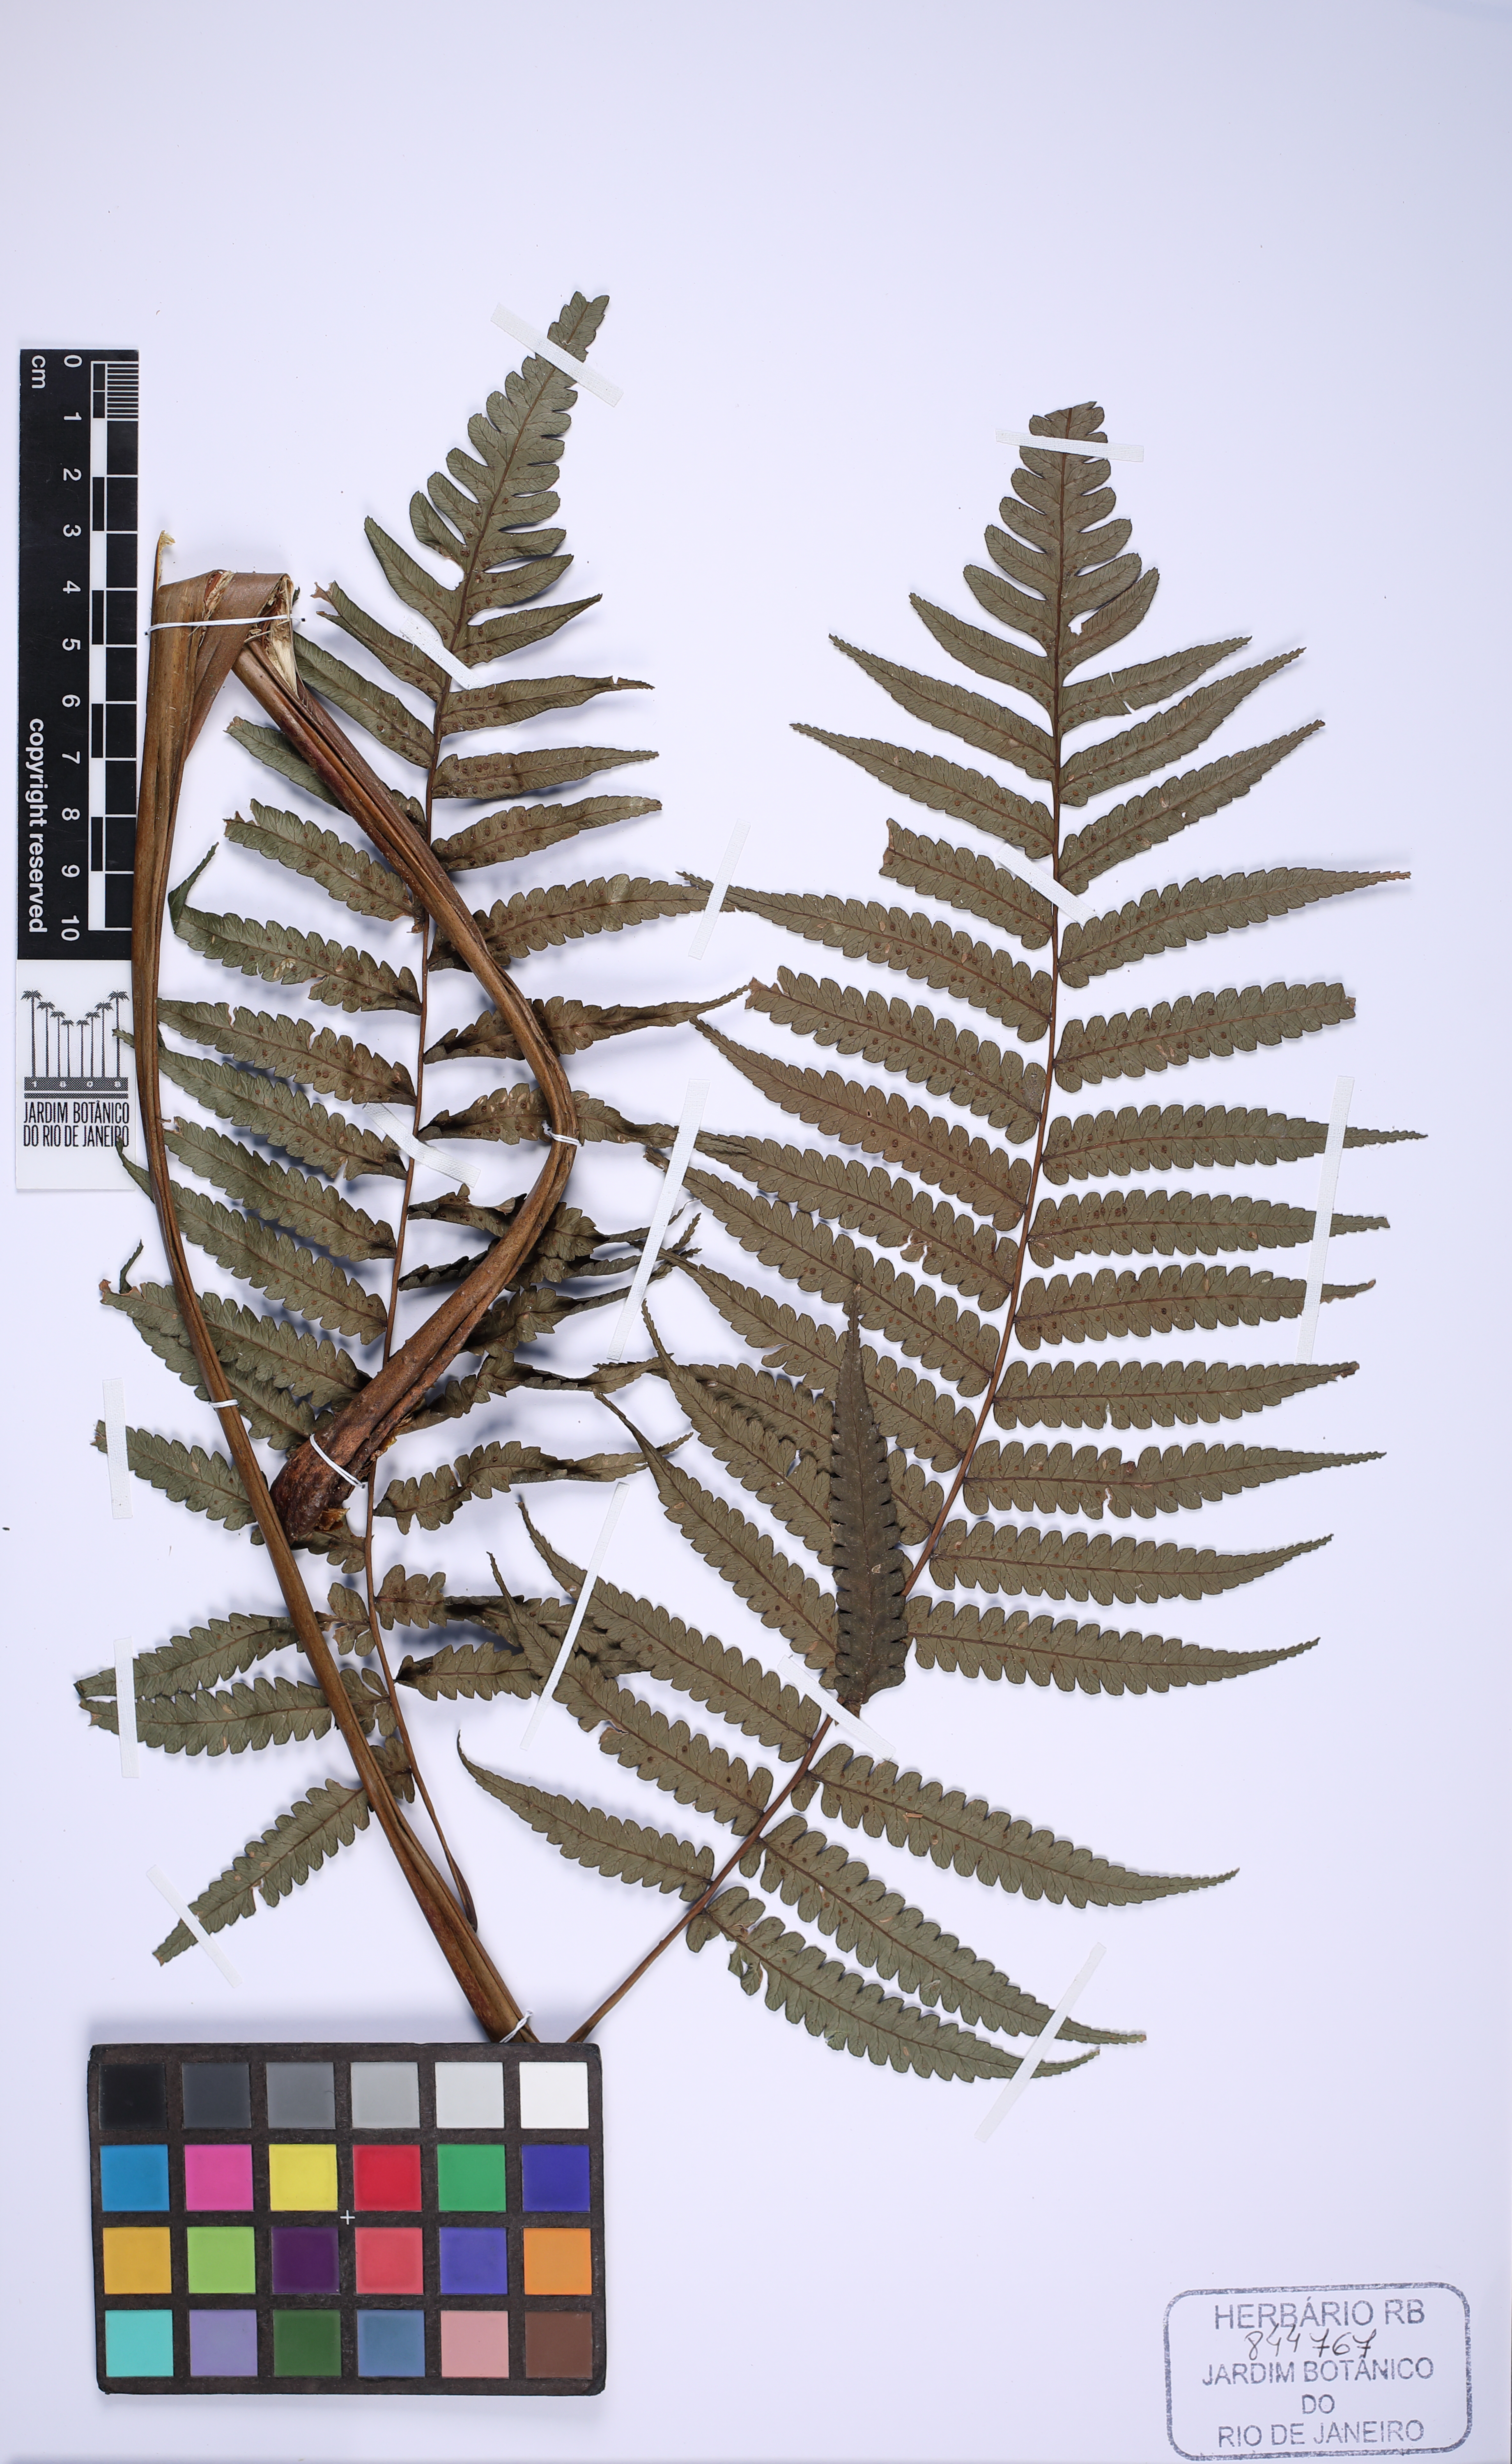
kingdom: Plantae
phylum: Tracheophyta
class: Polypodiopsida
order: Cyatheales
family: Cyatheaceae
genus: Cyathea
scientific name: Cyathea atrovirens
